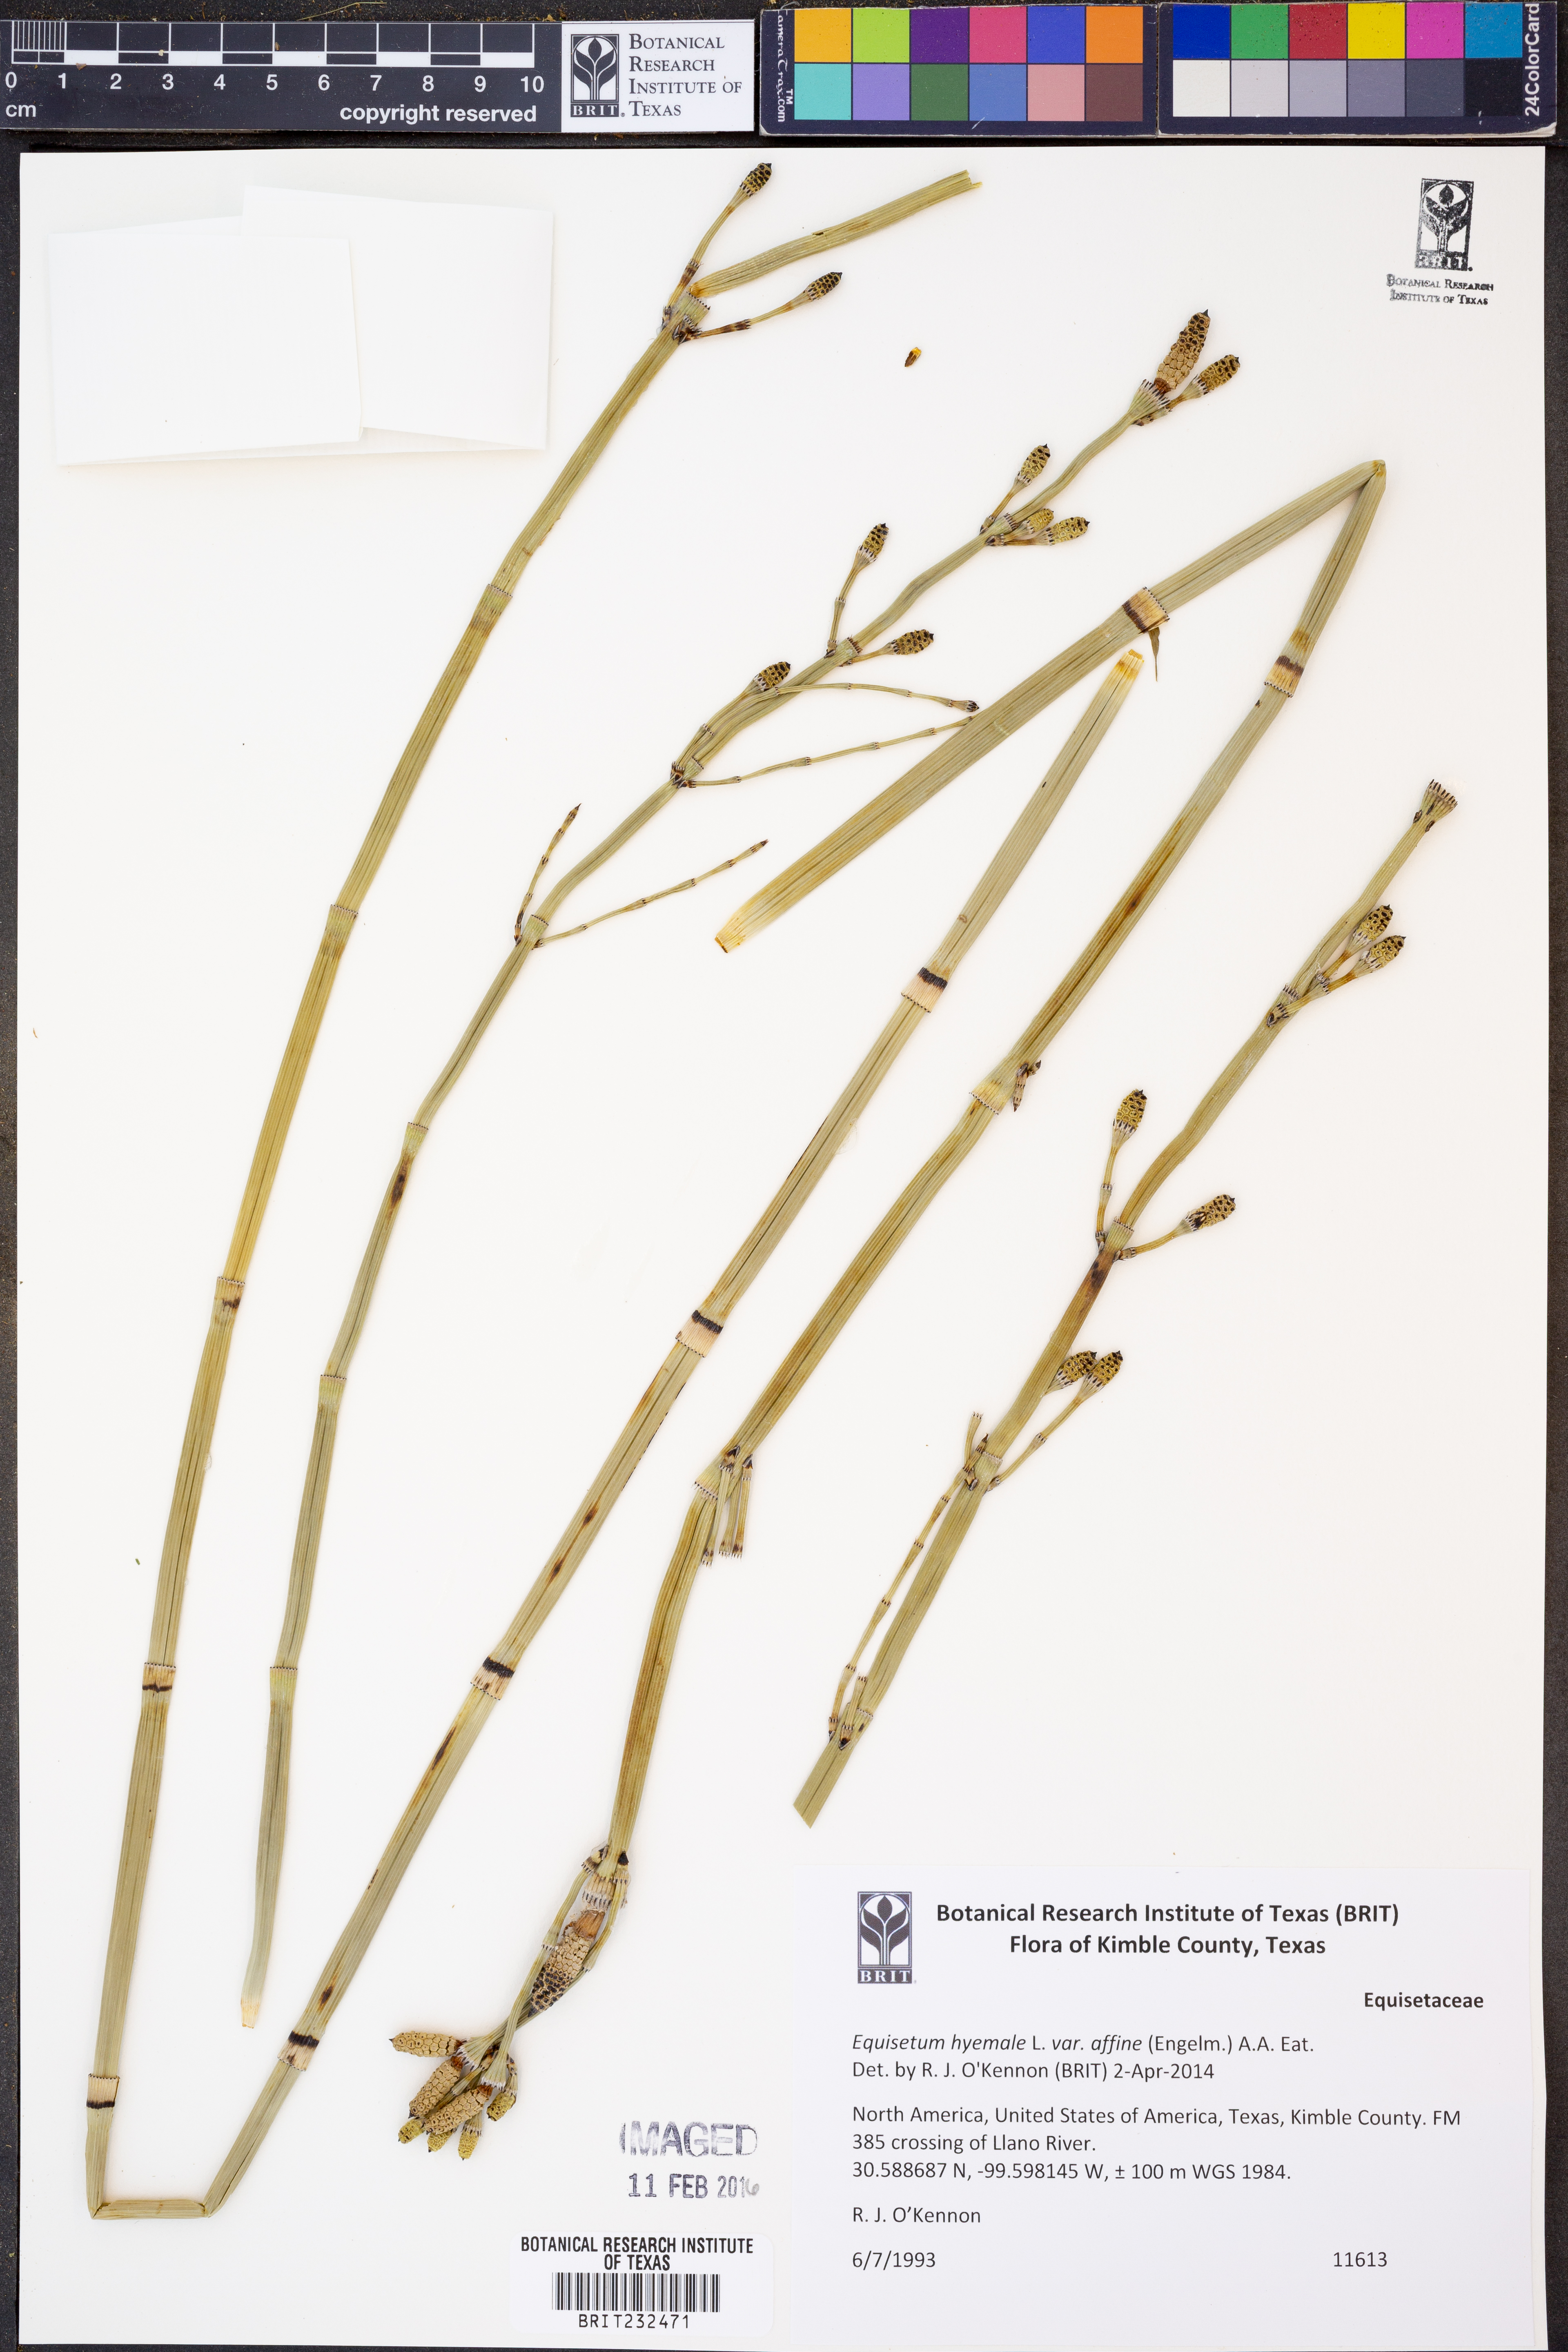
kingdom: Plantae
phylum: Tracheophyta
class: Polypodiopsida
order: Equisetales
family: Equisetaceae
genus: Equisetum
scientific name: Equisetum hyemale
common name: Rough horsetail
